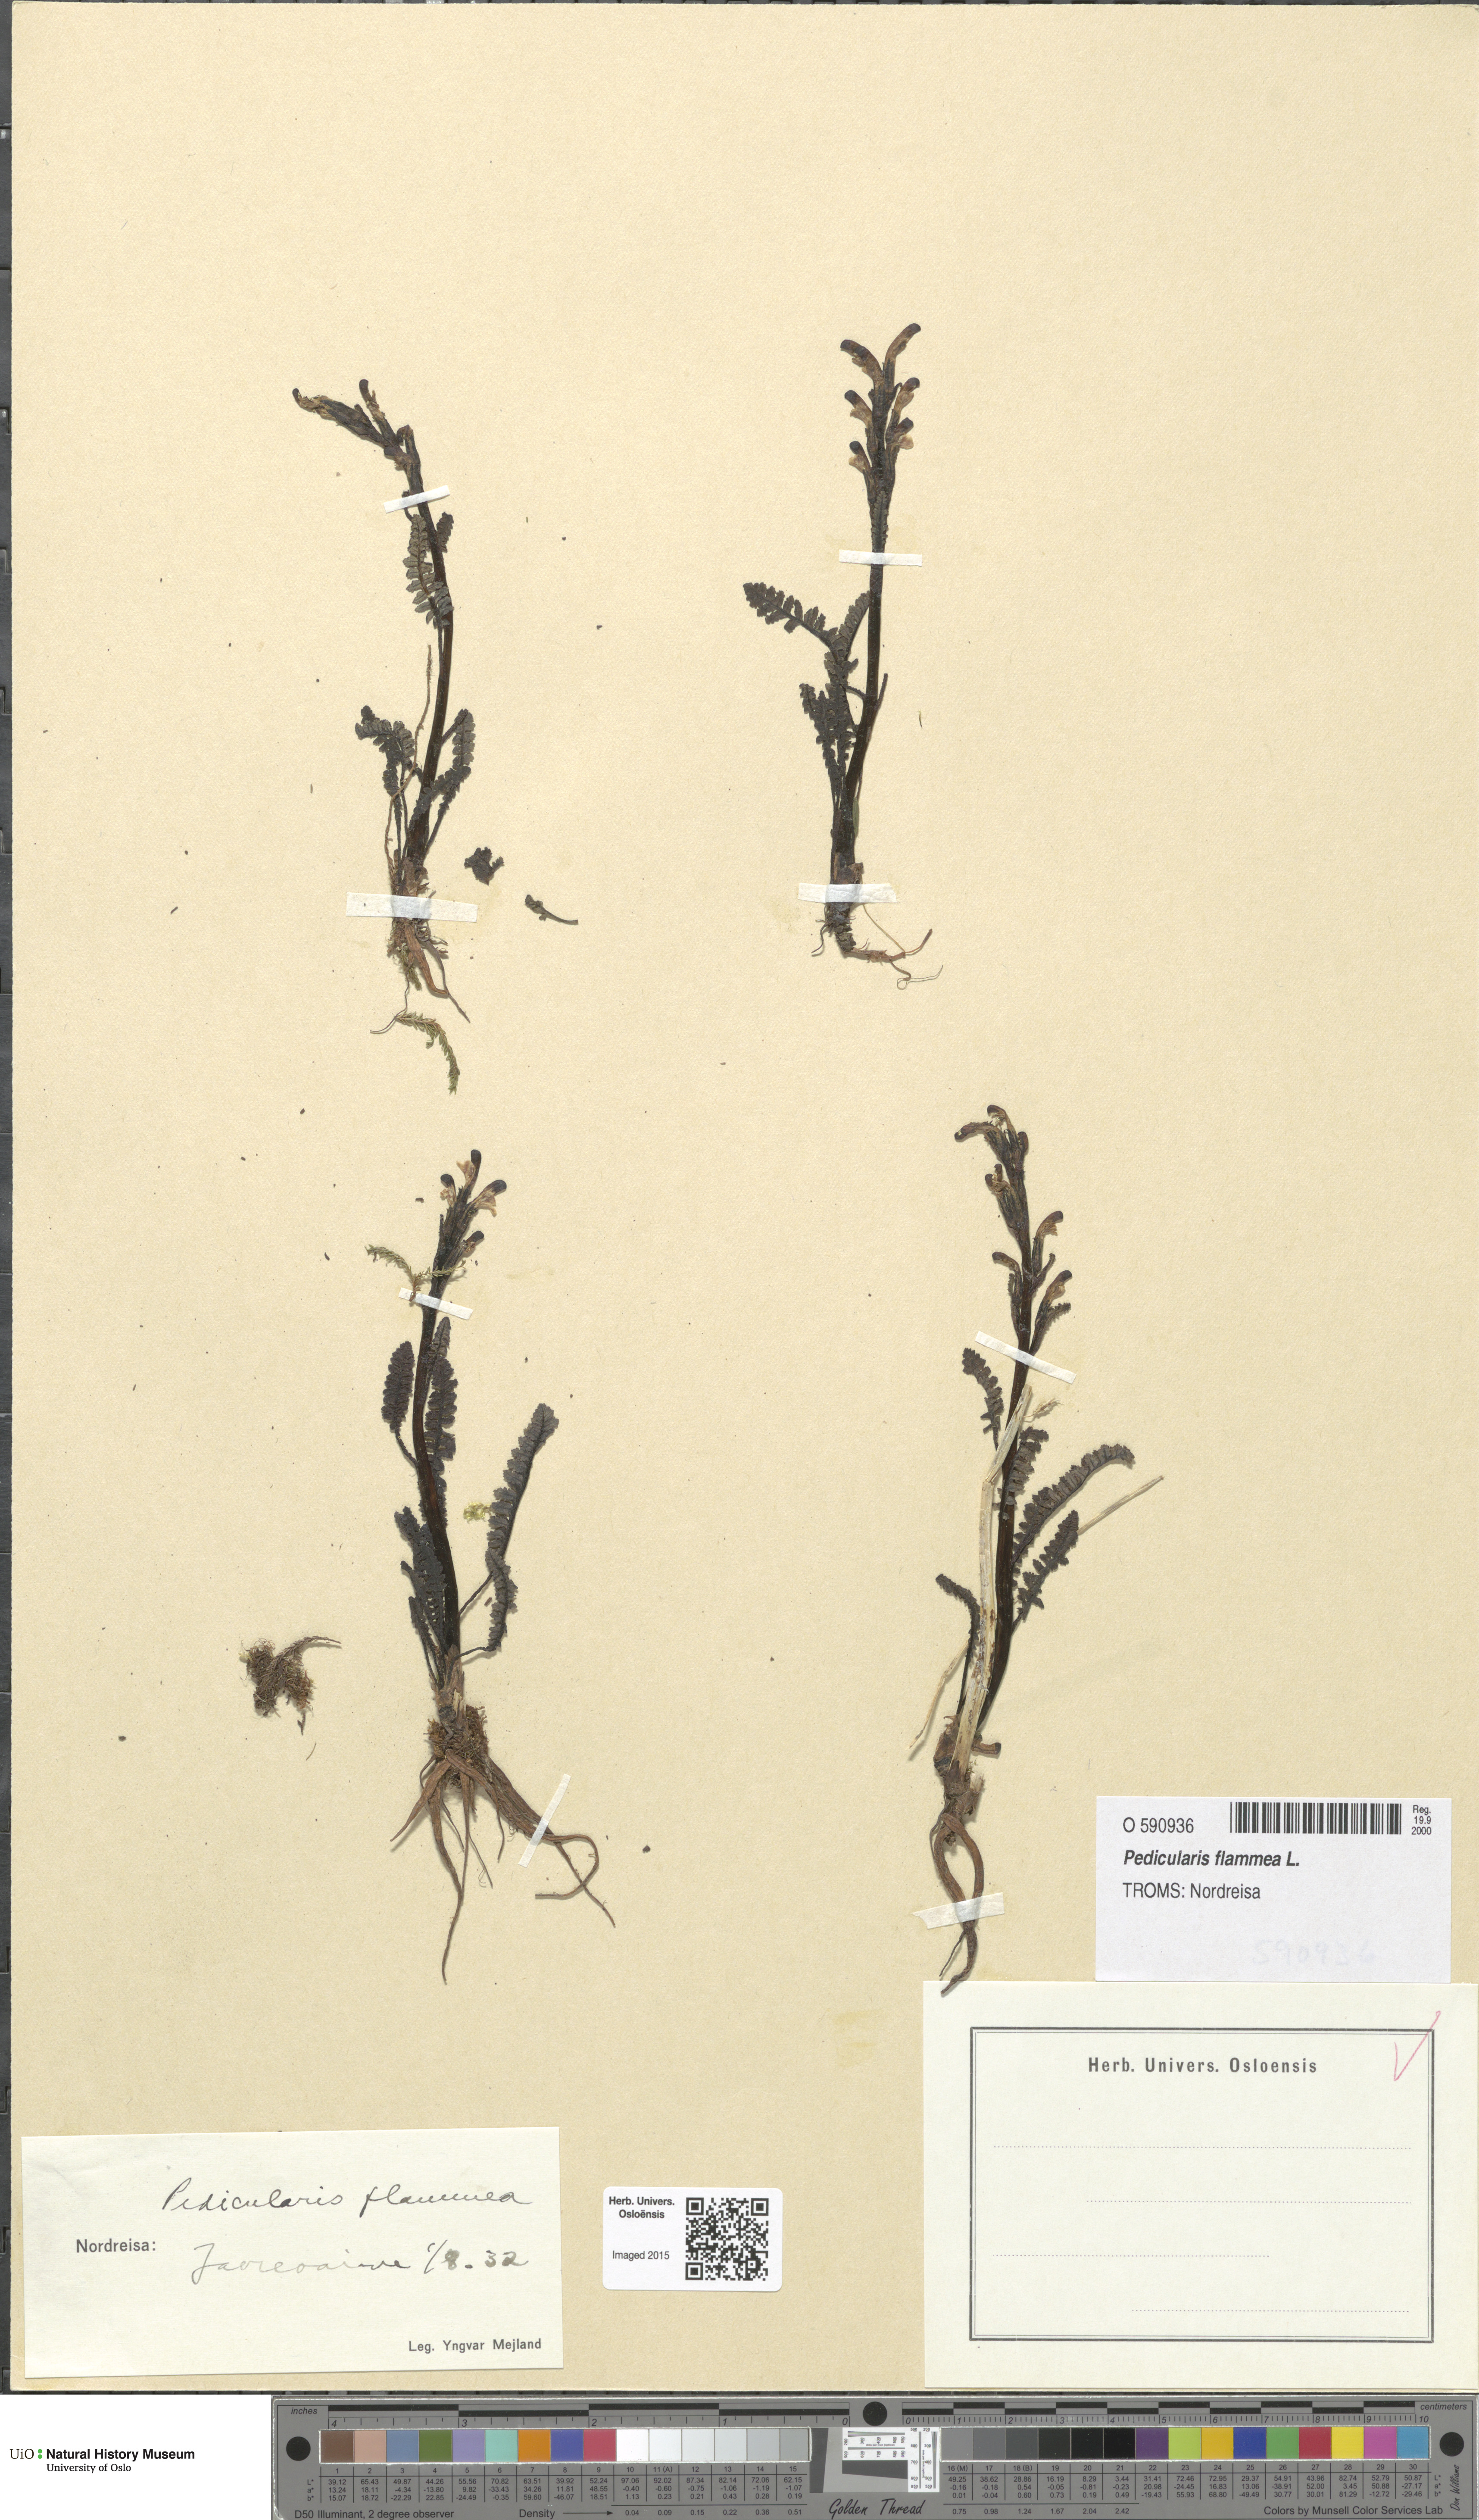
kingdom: Plantae
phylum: Tracheophyta
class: Magnoliopsida
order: Lamiales
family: Orobanchaceae
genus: Pedicularis
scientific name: Pedicularis flammea
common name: Flame-coloured lousewort
